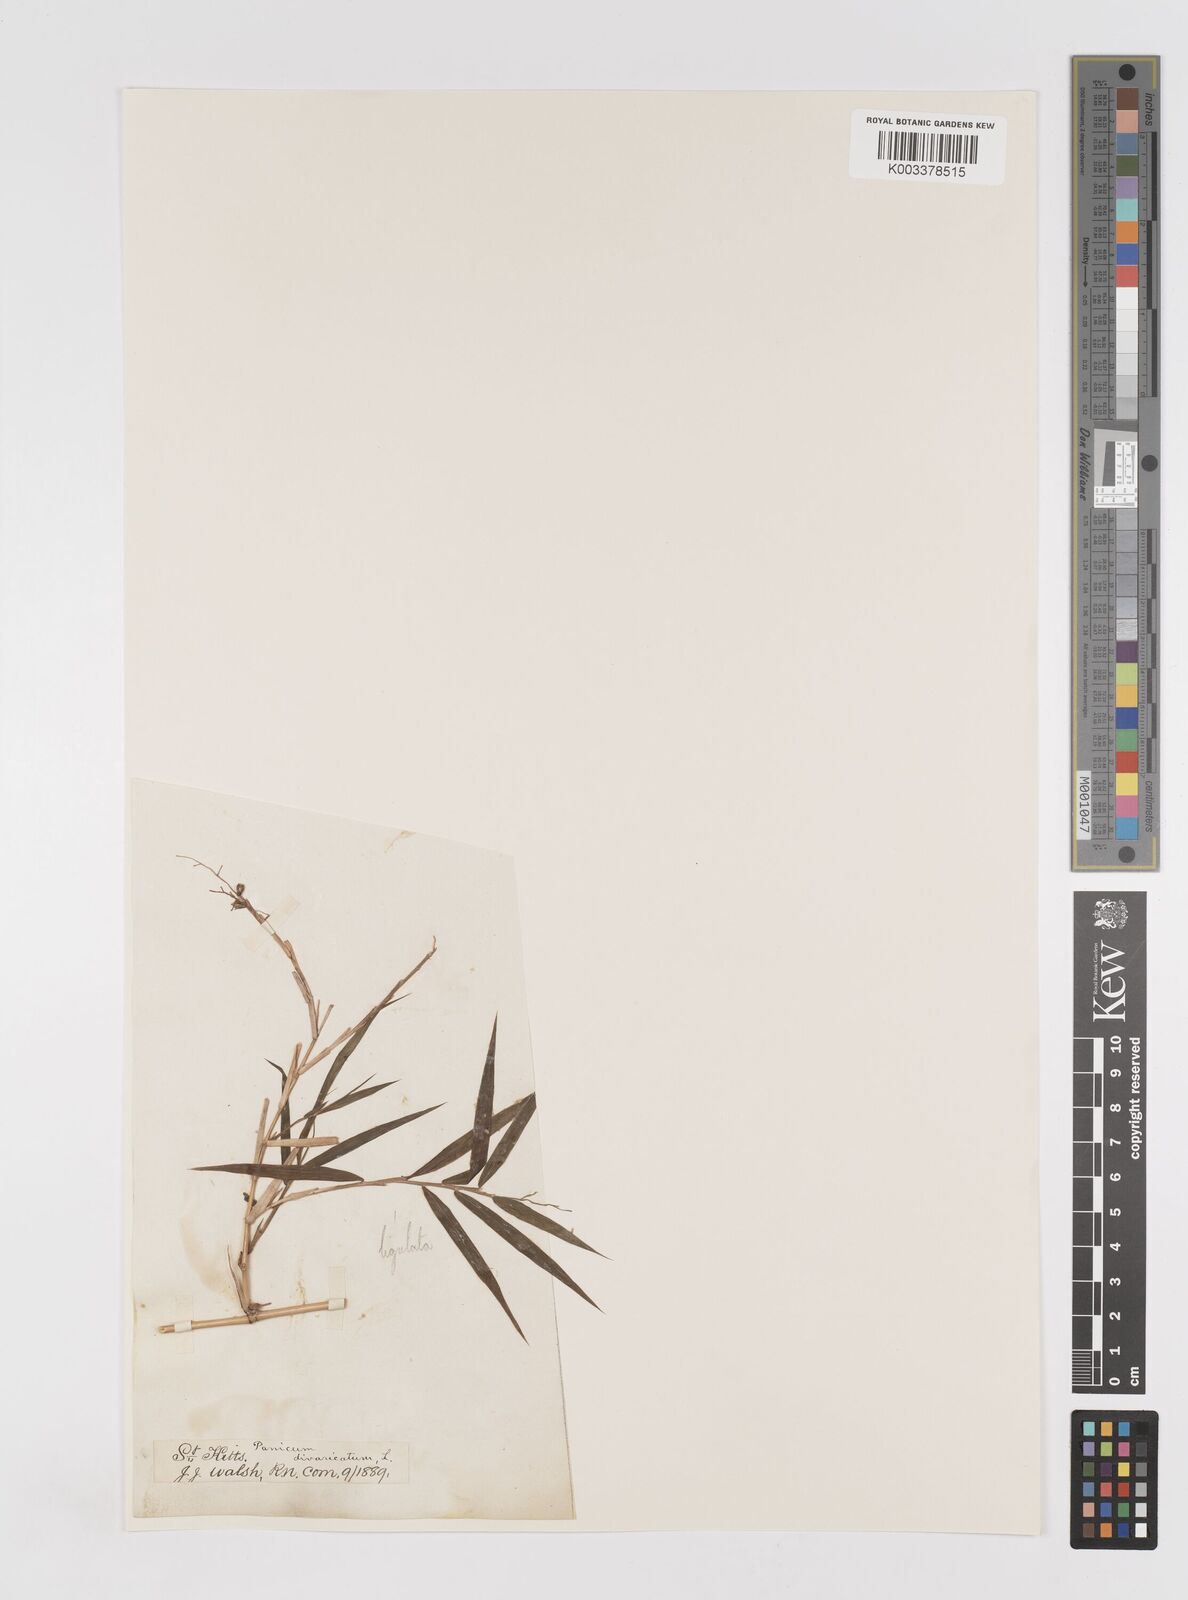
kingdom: Plantae
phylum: Tracheophyta
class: Liliopsida
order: Poales
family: Poaceae
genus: Lasiacis
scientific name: Lasiacis ligulata
